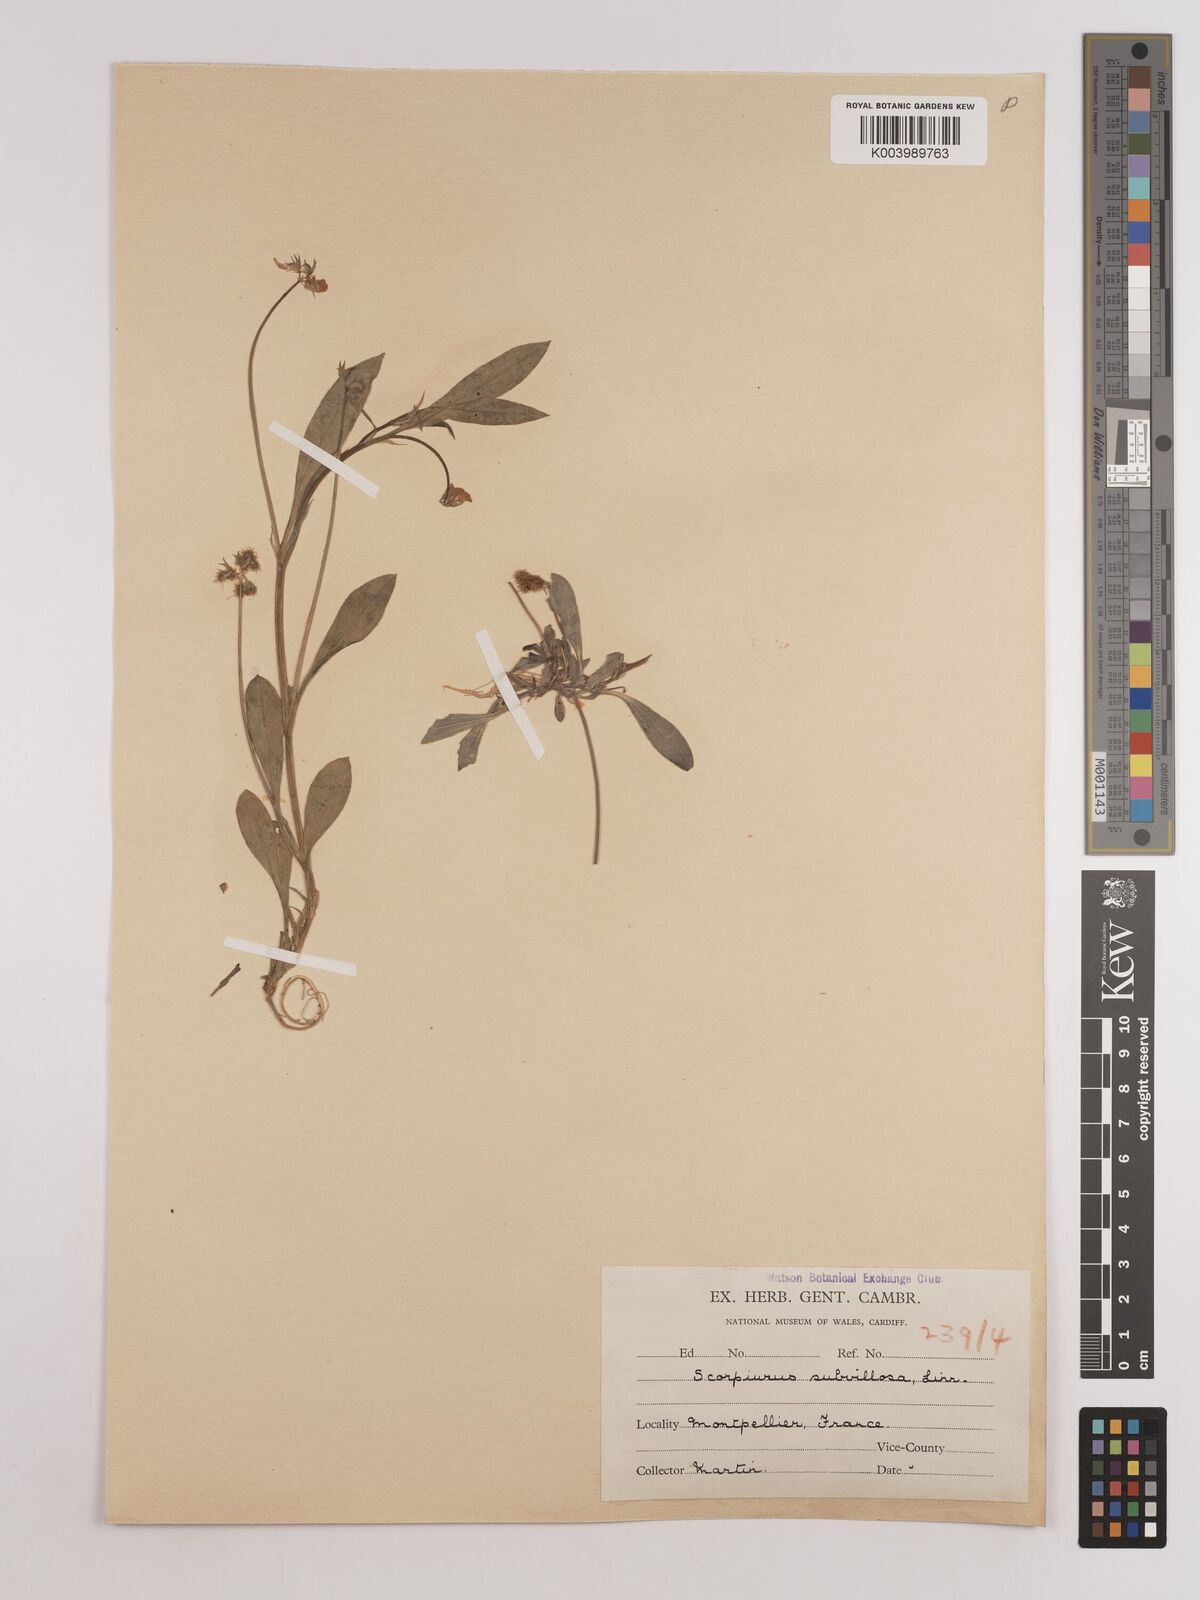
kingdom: Plantae
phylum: Tracheophyta
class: Magnoliopsida
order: Fabales
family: Fabaceae
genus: Scorpiurus
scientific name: Scorpiurus muricatus
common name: Caterpillar-plant
